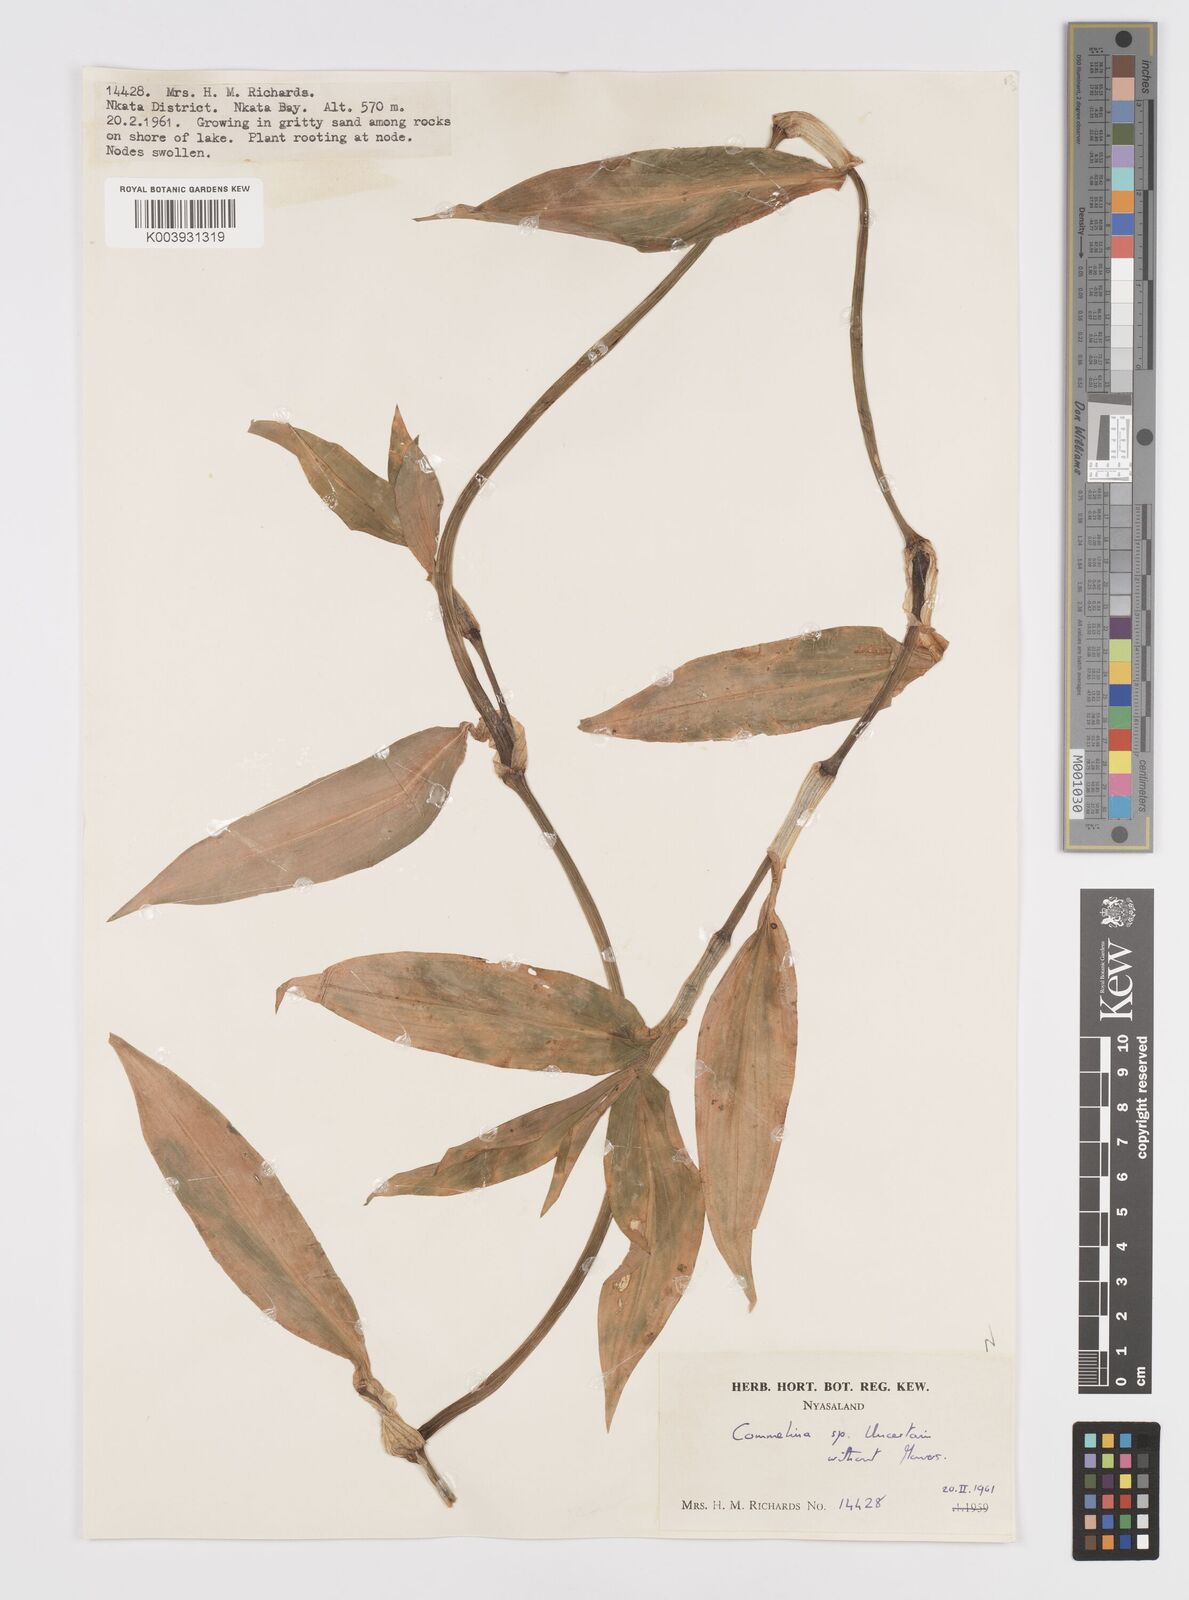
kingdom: Plantae
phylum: Tracheophyta
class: Liliopsida
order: Commelinales
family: Commelinaceae
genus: Commelina
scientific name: Commelina
